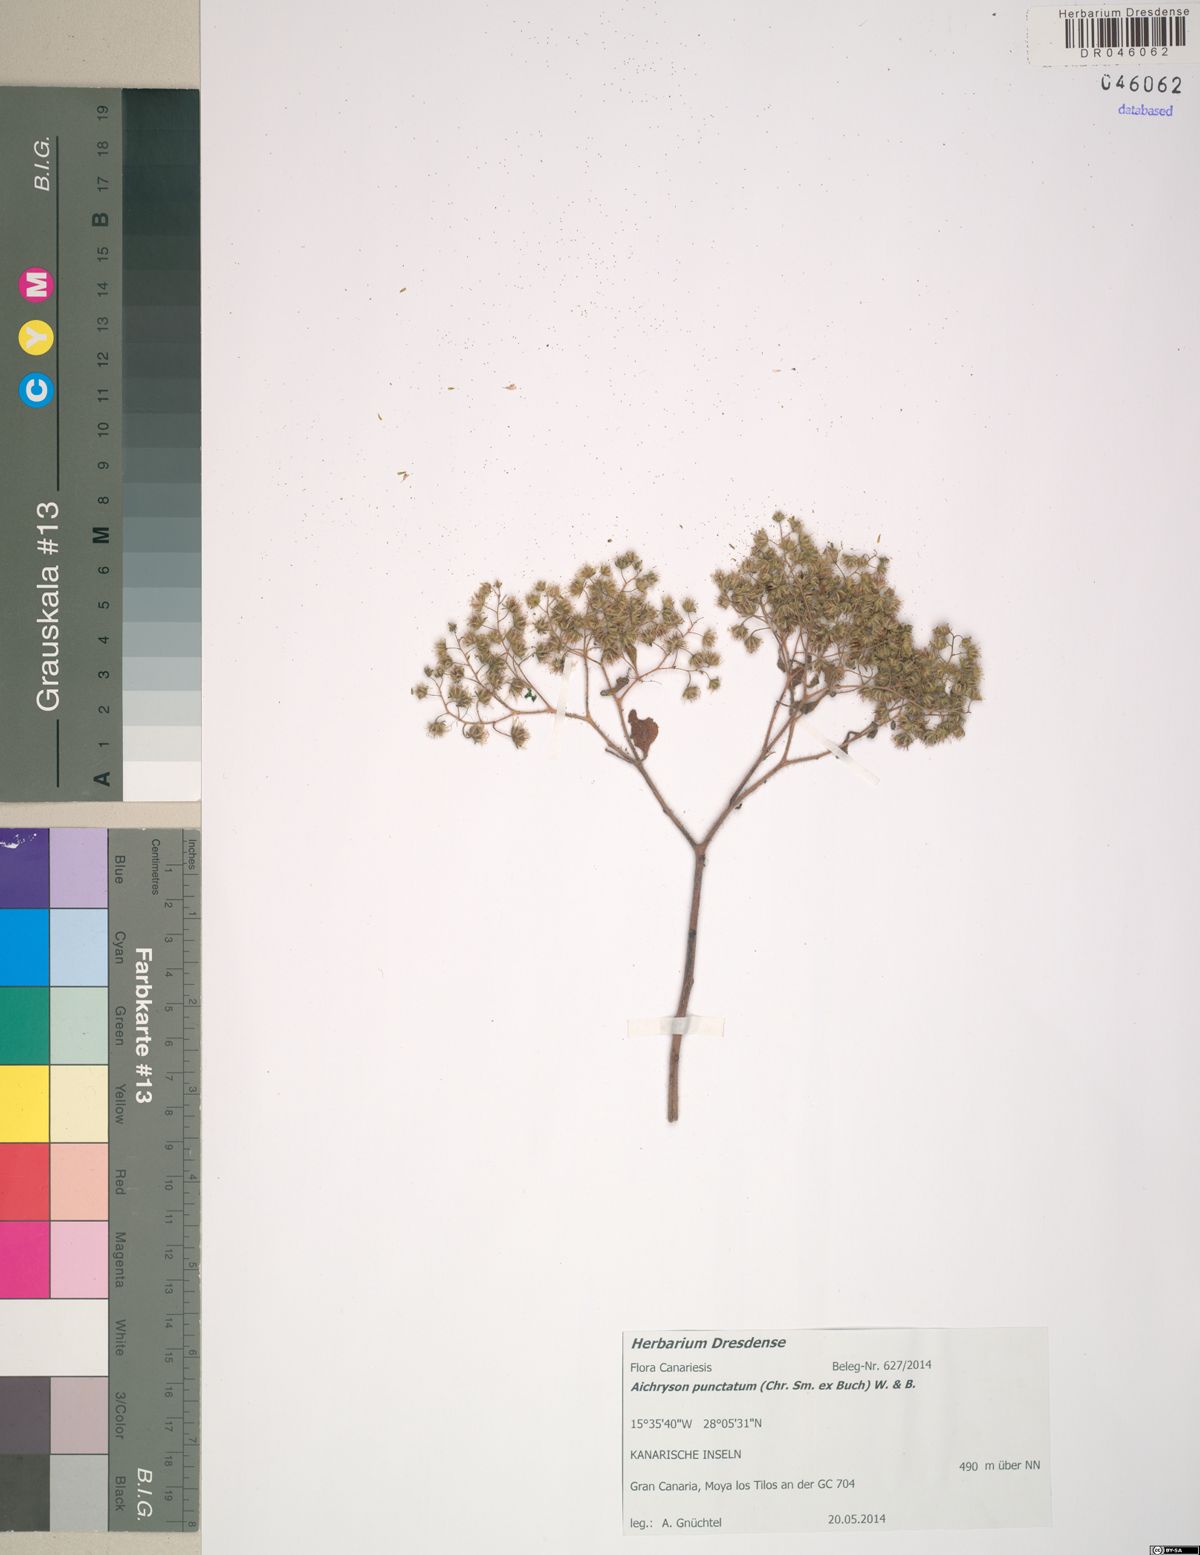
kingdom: Plantae
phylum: Tracheophyta
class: Magnoliopsida
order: Saxifragales
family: Crassulaceae
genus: Aichryson
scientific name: Aichryson punctatum
